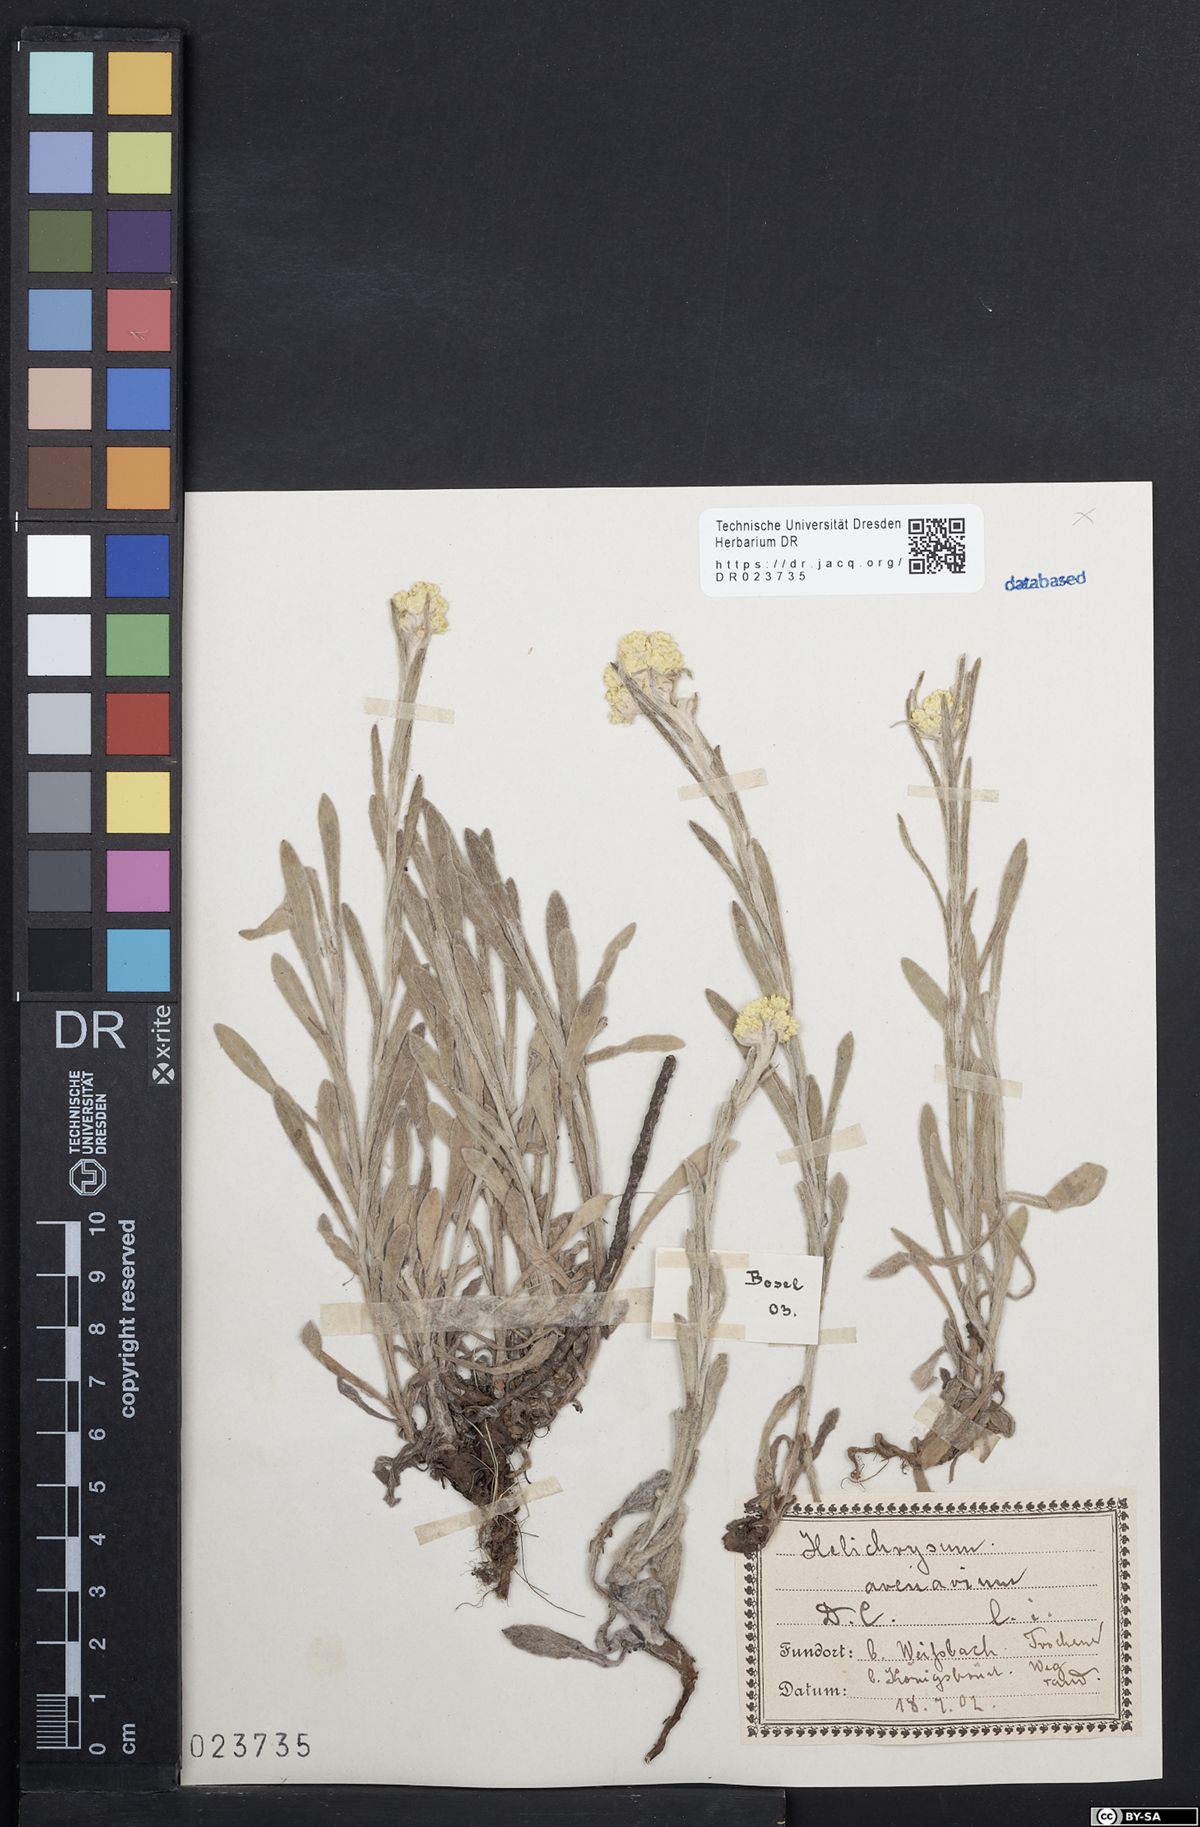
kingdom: Plantae
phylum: Tracheophyta
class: Magnoliopsida
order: Asterales
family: Asteraceae
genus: Helichrysum
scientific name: Helichrysum arenarium
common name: Strawflower
